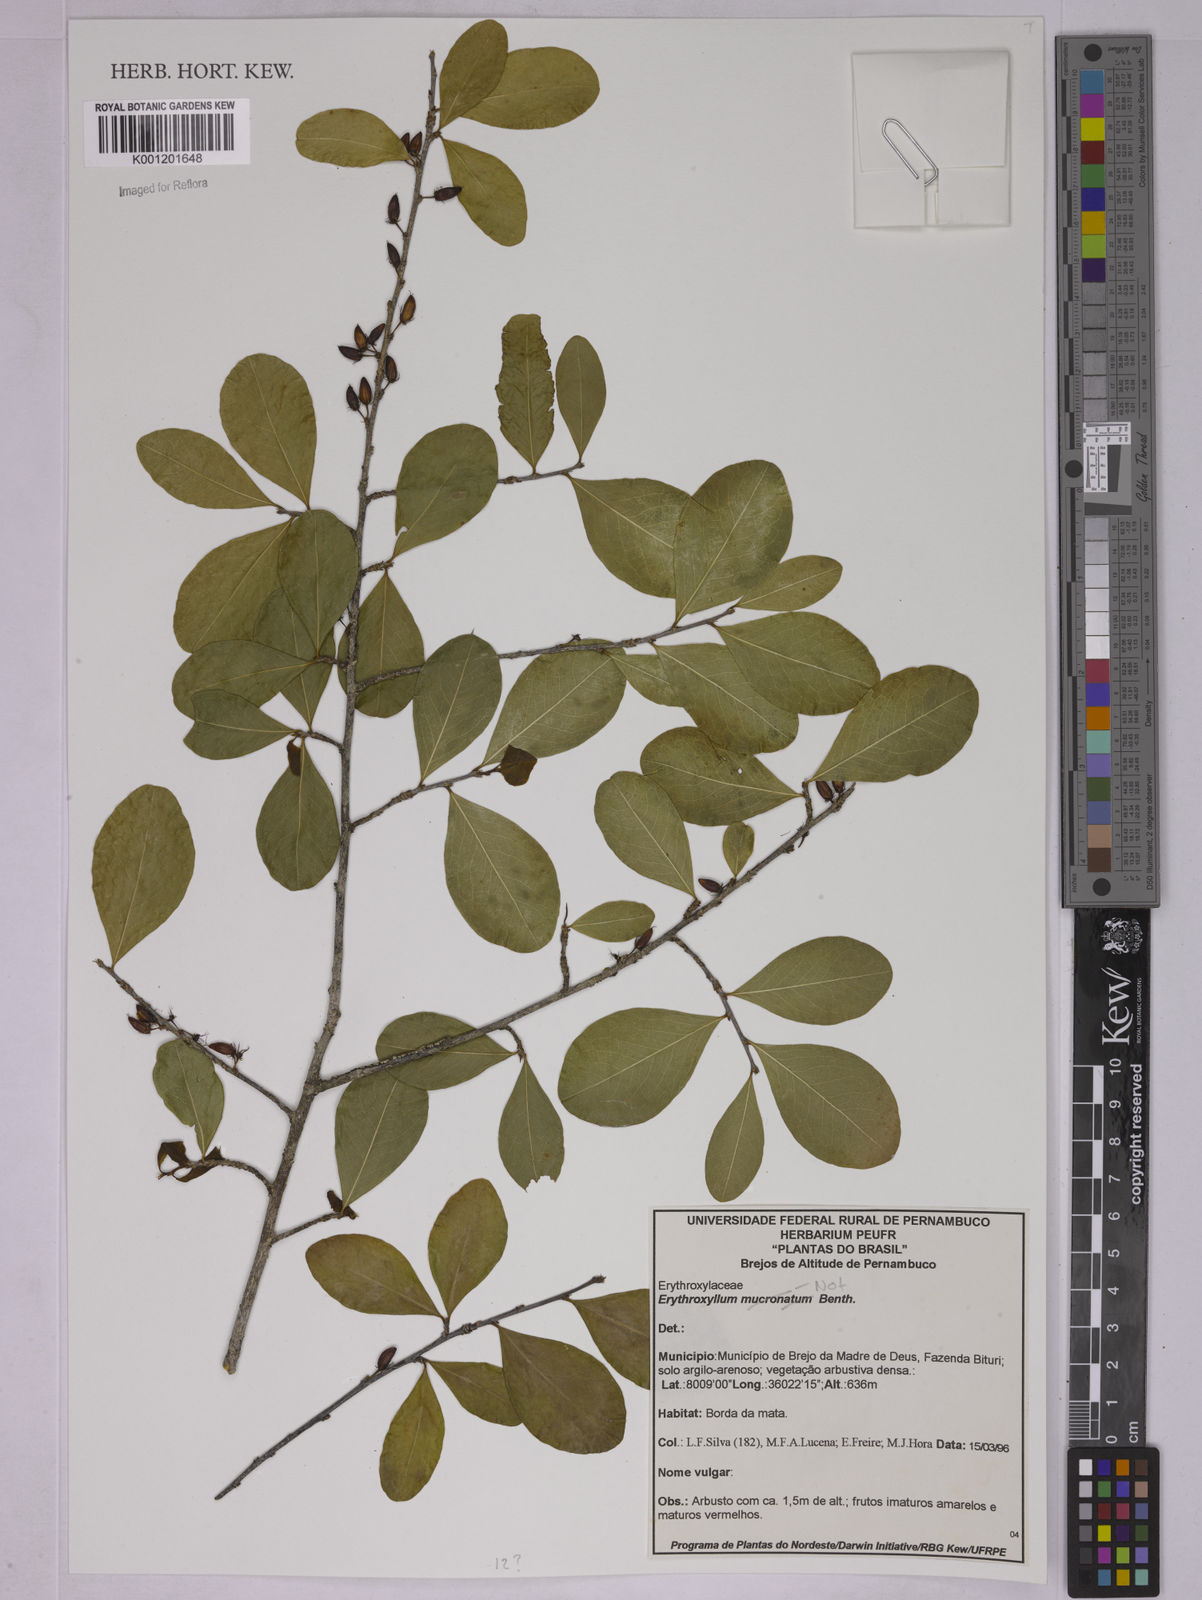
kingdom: Plantae
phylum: Tracheophyta
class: Magnoliopsida
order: Malpighiales
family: Erythroxylaceae
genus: Erythroxylum
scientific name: Erythroxylum
